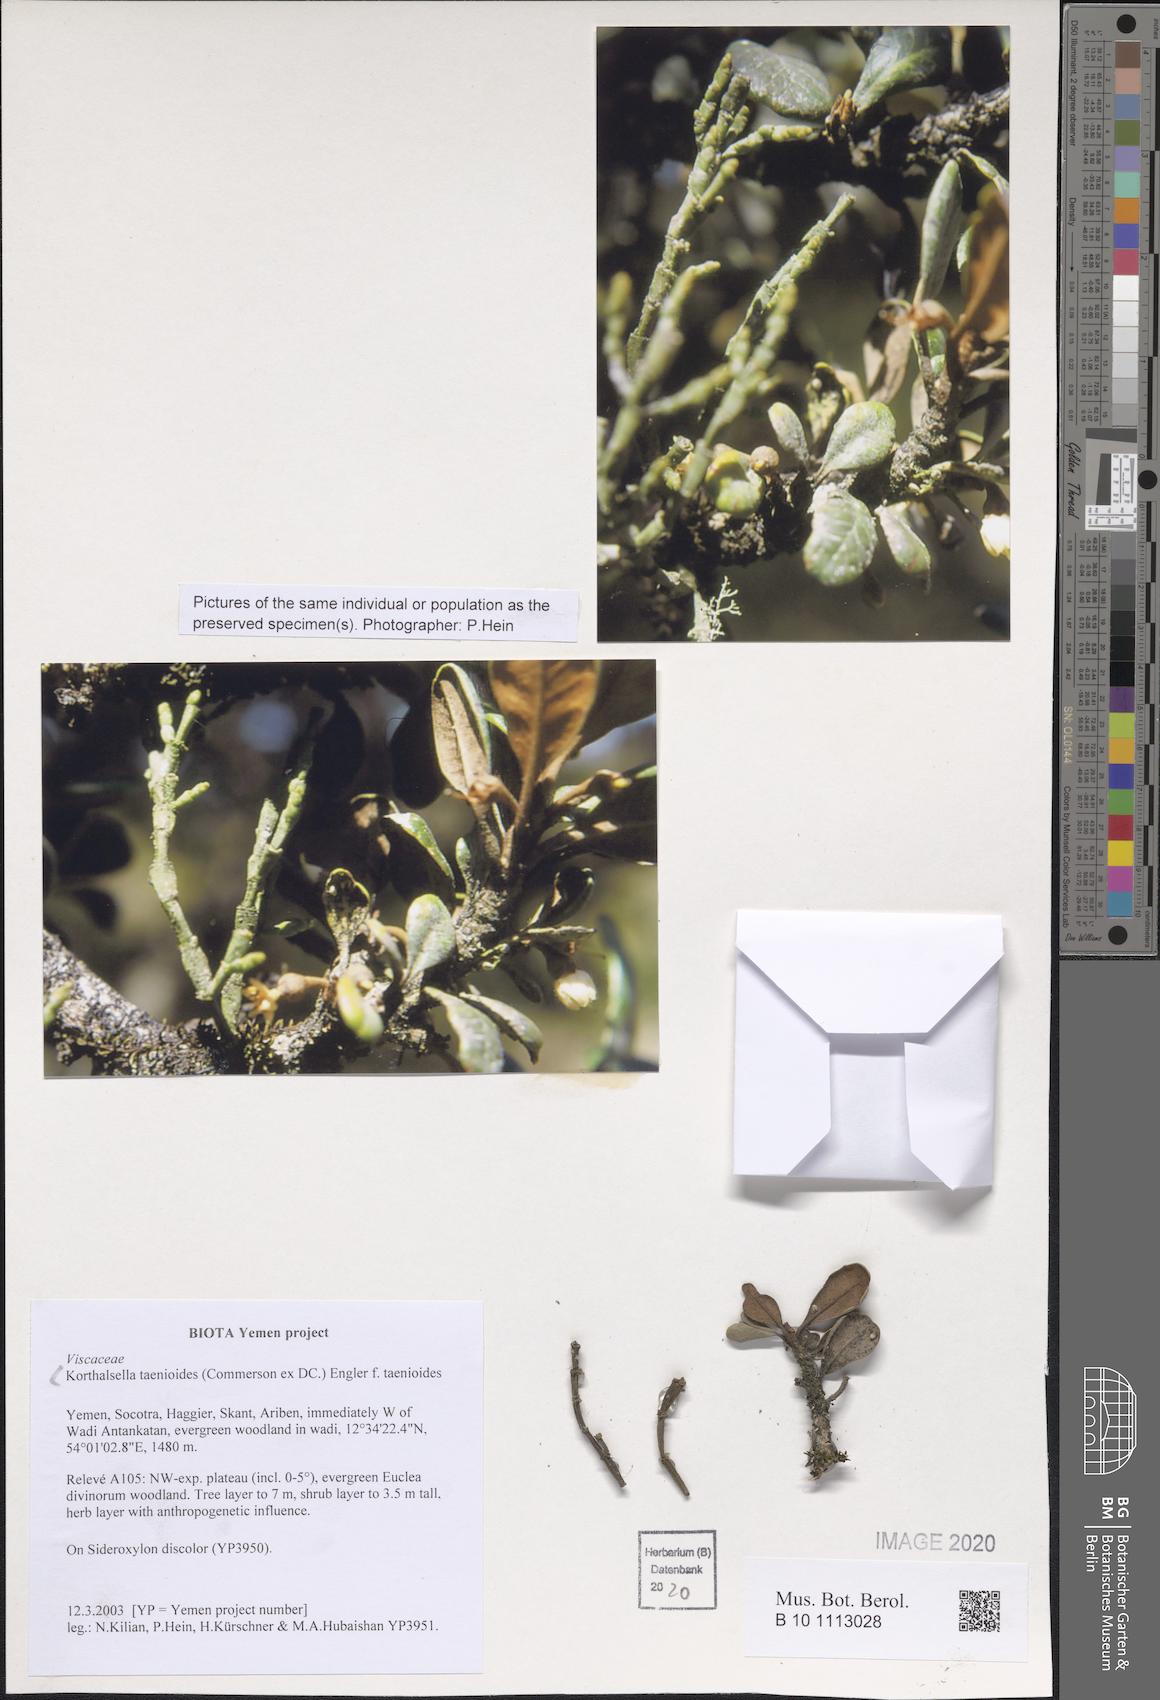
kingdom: Plantae
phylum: Tracheophyta
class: Magnoliopsida
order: Santalales
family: Viscaceae
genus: Korthalsella
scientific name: Korthalsella taenioides
